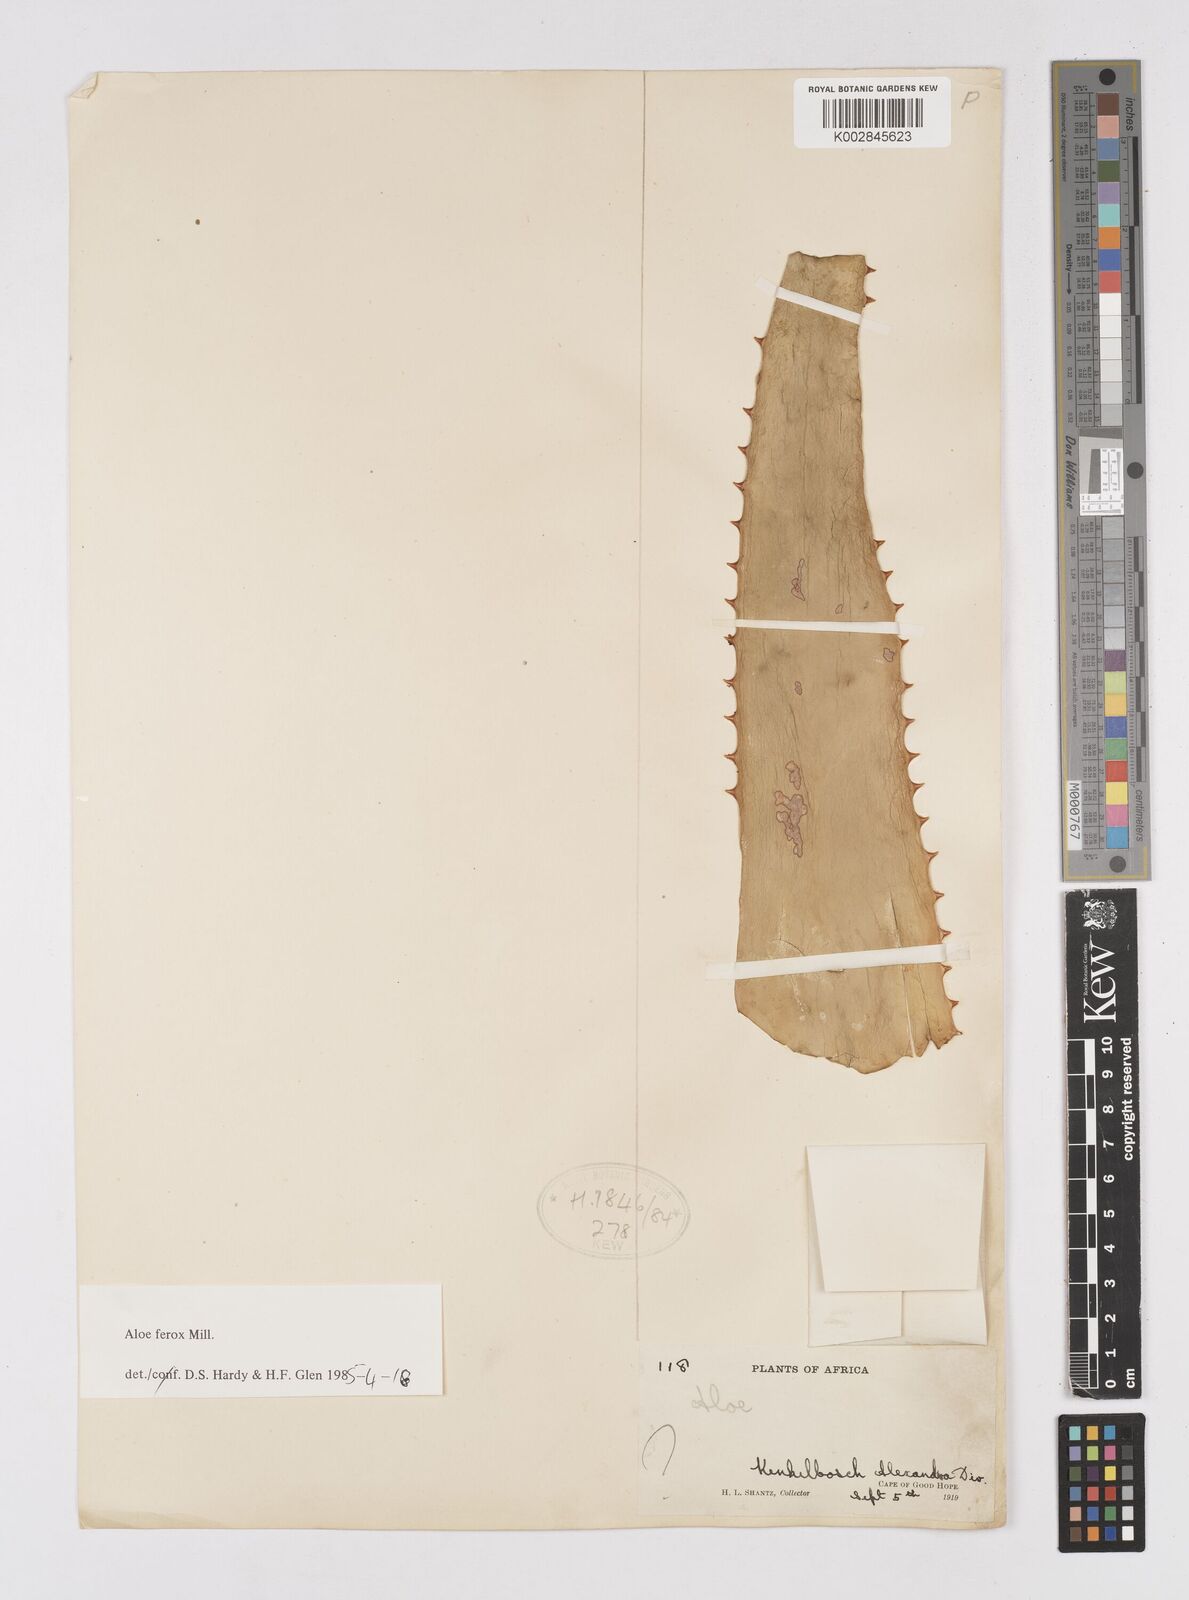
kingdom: Plantae
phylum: Tracheophyta
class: Liliopsida
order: Asparagales
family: Asphodelaceae
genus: Aloe
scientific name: Aloe ferox
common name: Bitter aloe
